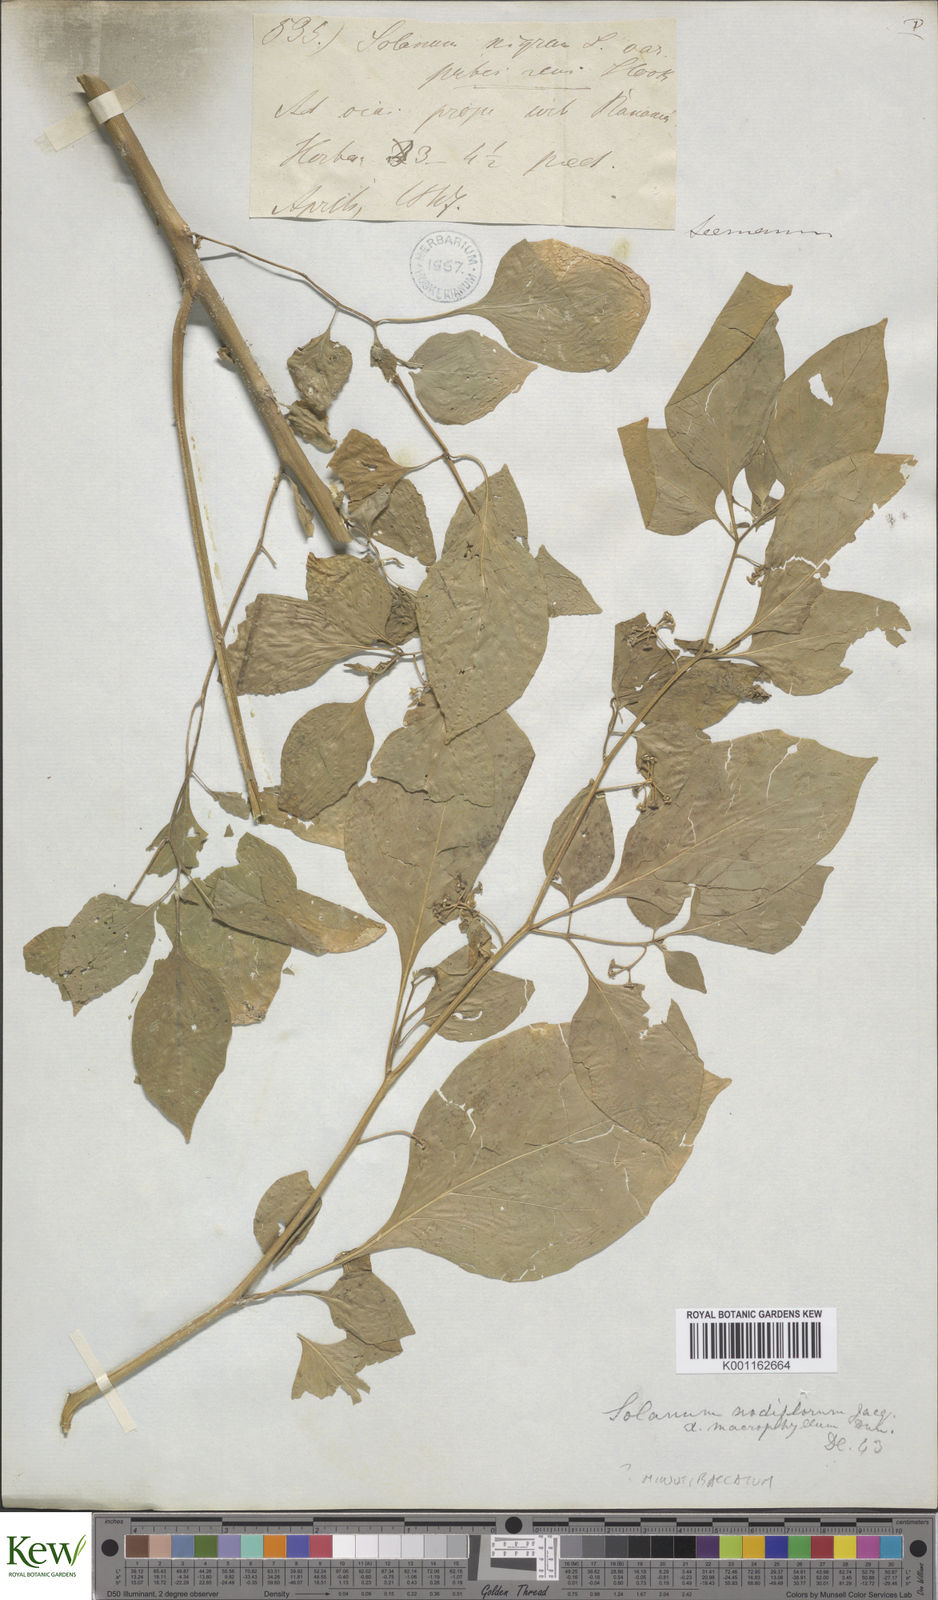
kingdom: Plantae
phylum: Tracheophyta
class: Magnoliopsida
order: Solanales
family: Solanaceae
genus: Solanum
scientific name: Solanum americanum
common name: American black nightshade
